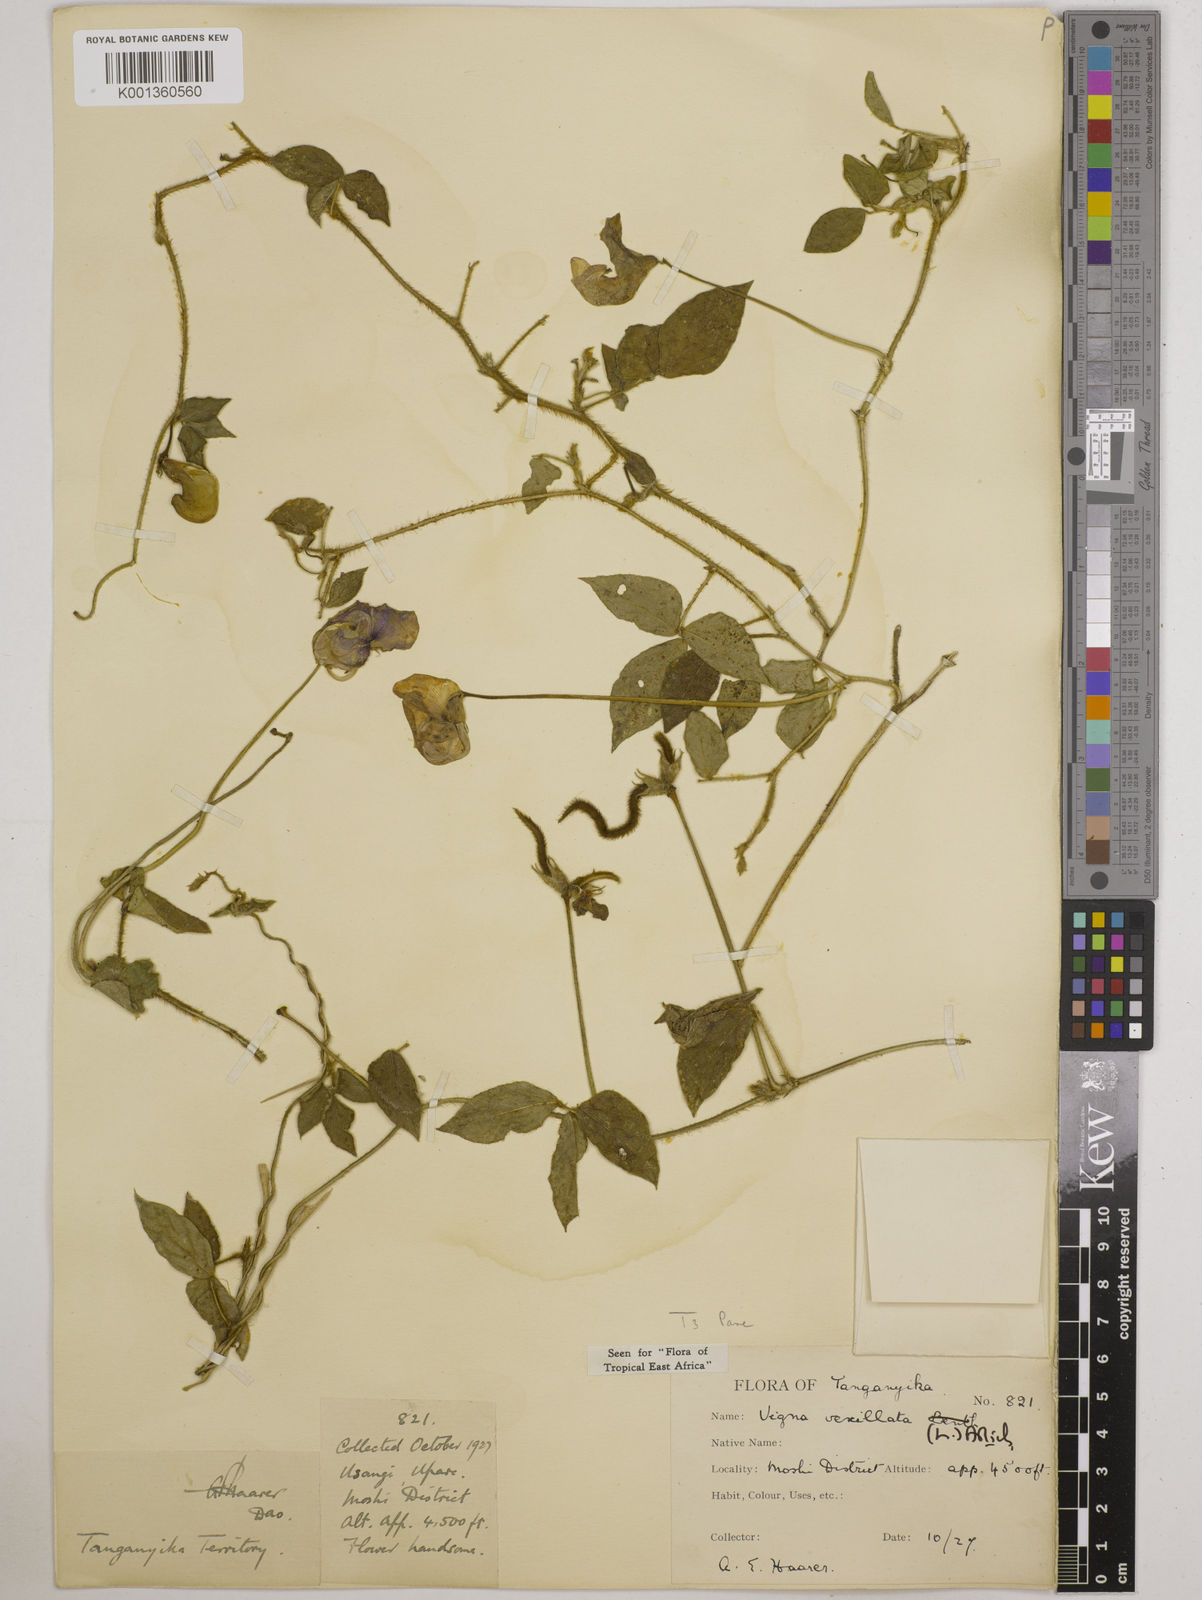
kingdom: Plantae
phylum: Tracheophyta
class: Magnoliopsida
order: Fabales
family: Fabaceae
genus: Vigna
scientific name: Vigna vexillata
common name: Zombi pea
